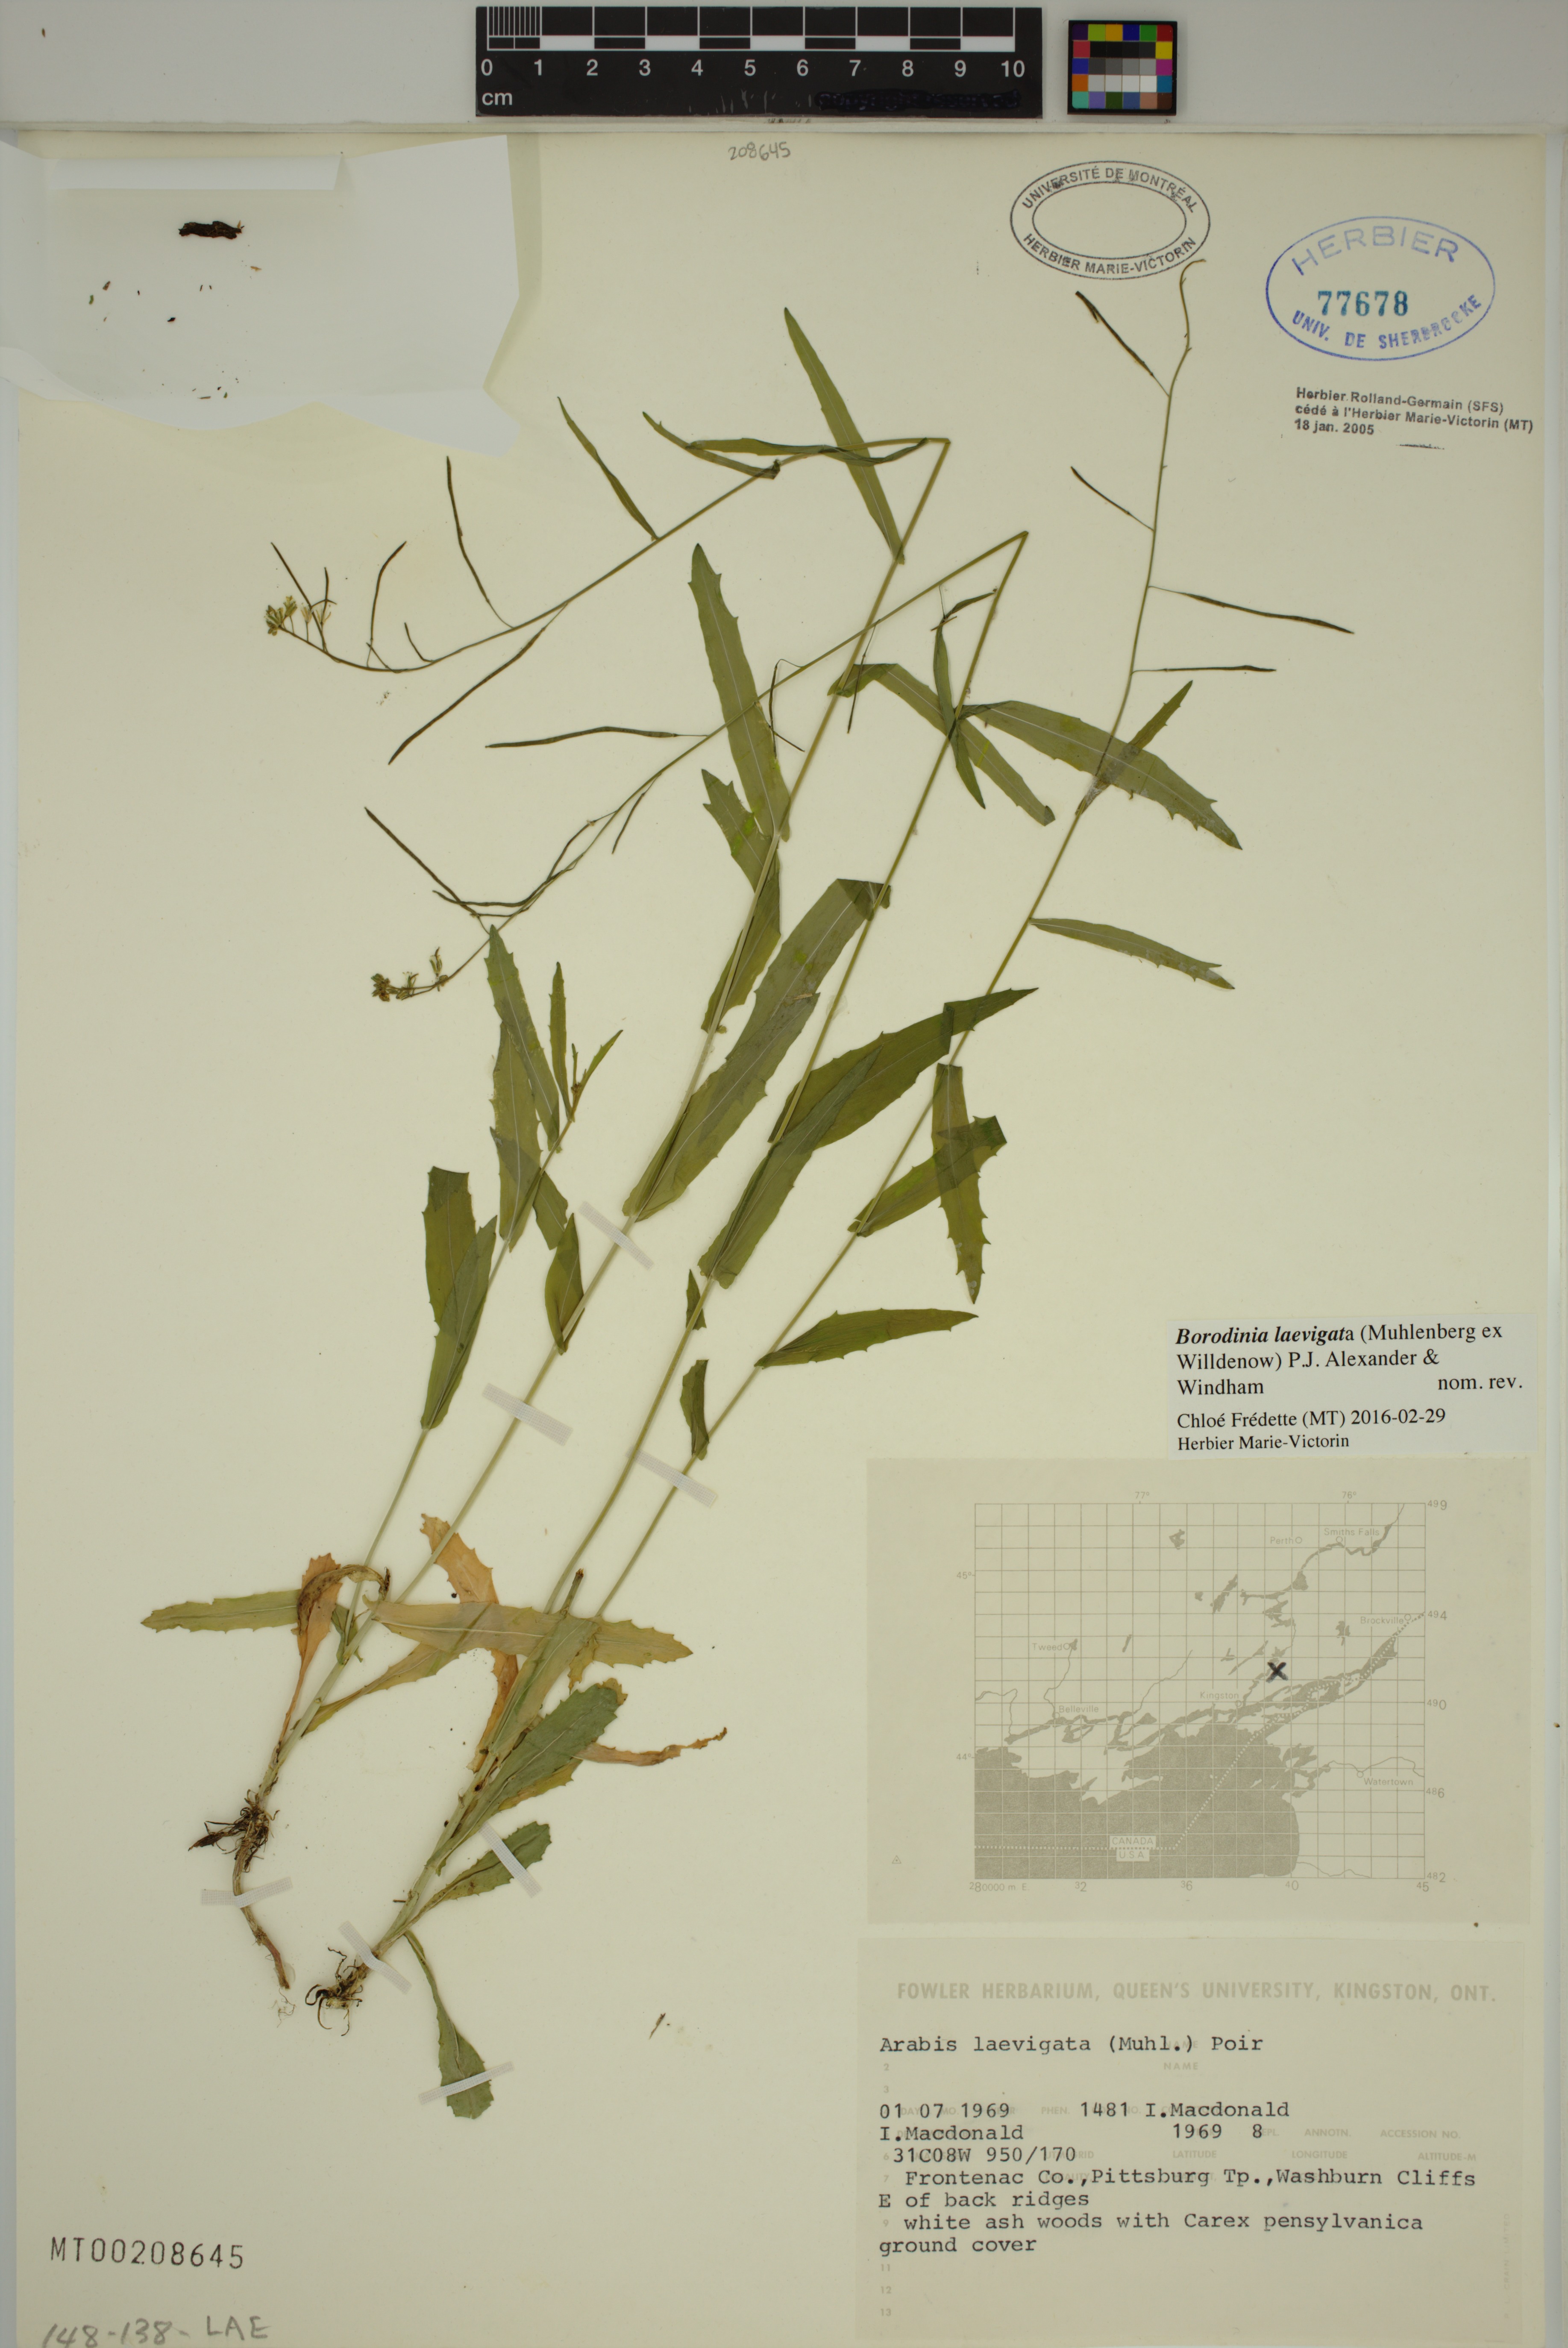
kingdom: Plantae
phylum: Tracheophyta
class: Magnoliopsida
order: Brassicales
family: Brassicaceae
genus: Borodinia
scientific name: Borodinia laevigata
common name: Smooth rockcress
